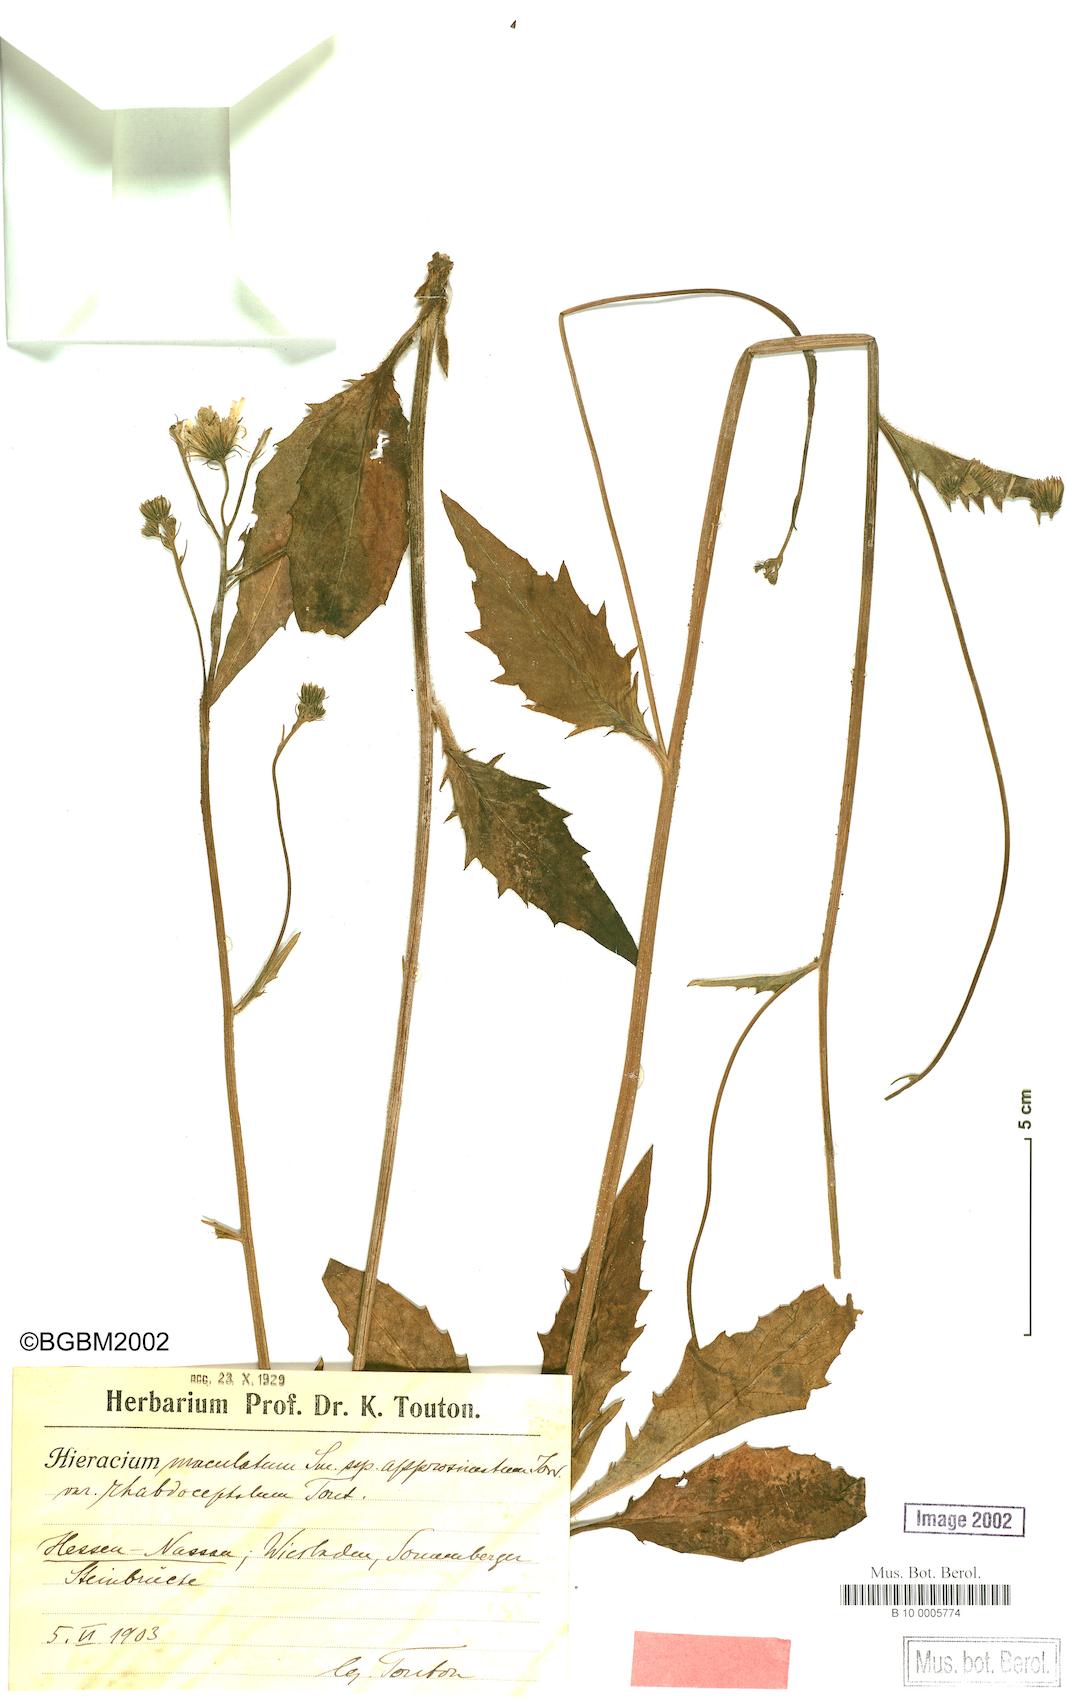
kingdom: Plantae
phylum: Tracheophyta
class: Magnoliopsida
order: Asterales
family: Asteraceae
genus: Hieracium
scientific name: Hieracium maculatum
